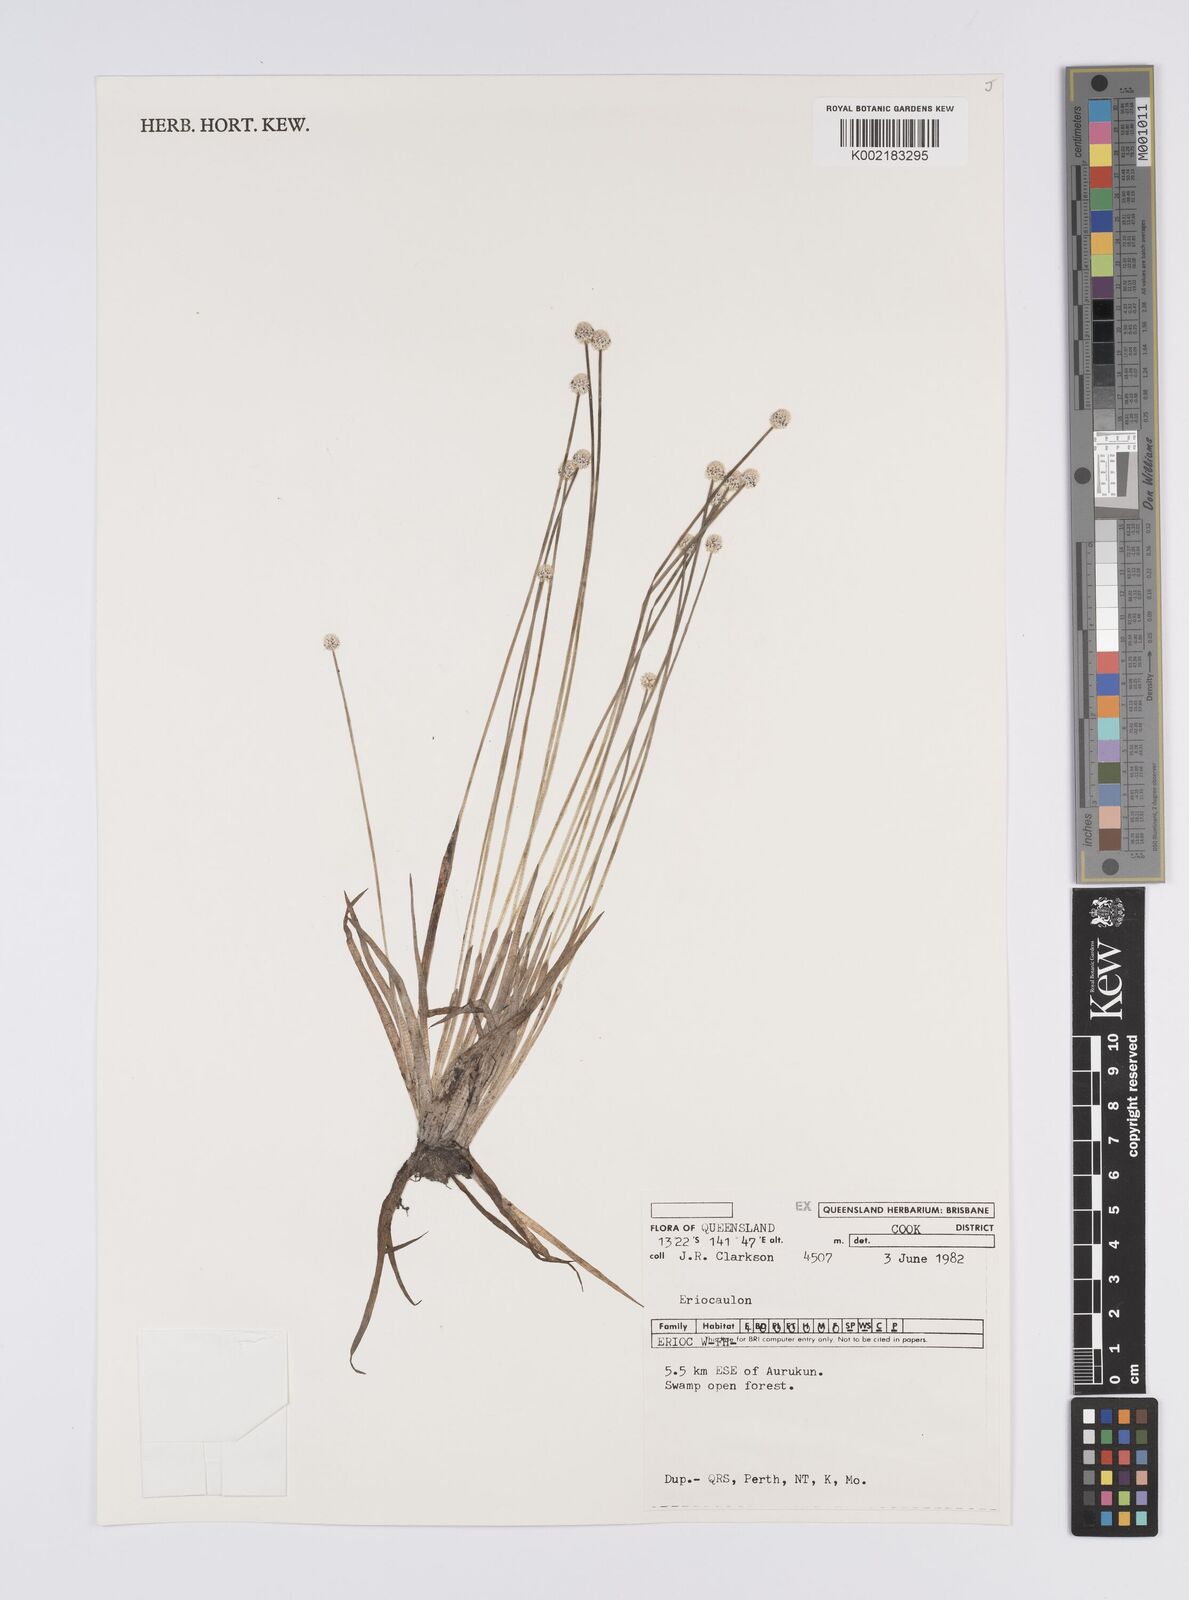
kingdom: Plantae
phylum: Tracheophyta
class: Liliopsida
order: Poales
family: Eriocaulaceae
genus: Eriocaulon
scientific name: Eriocaulon
